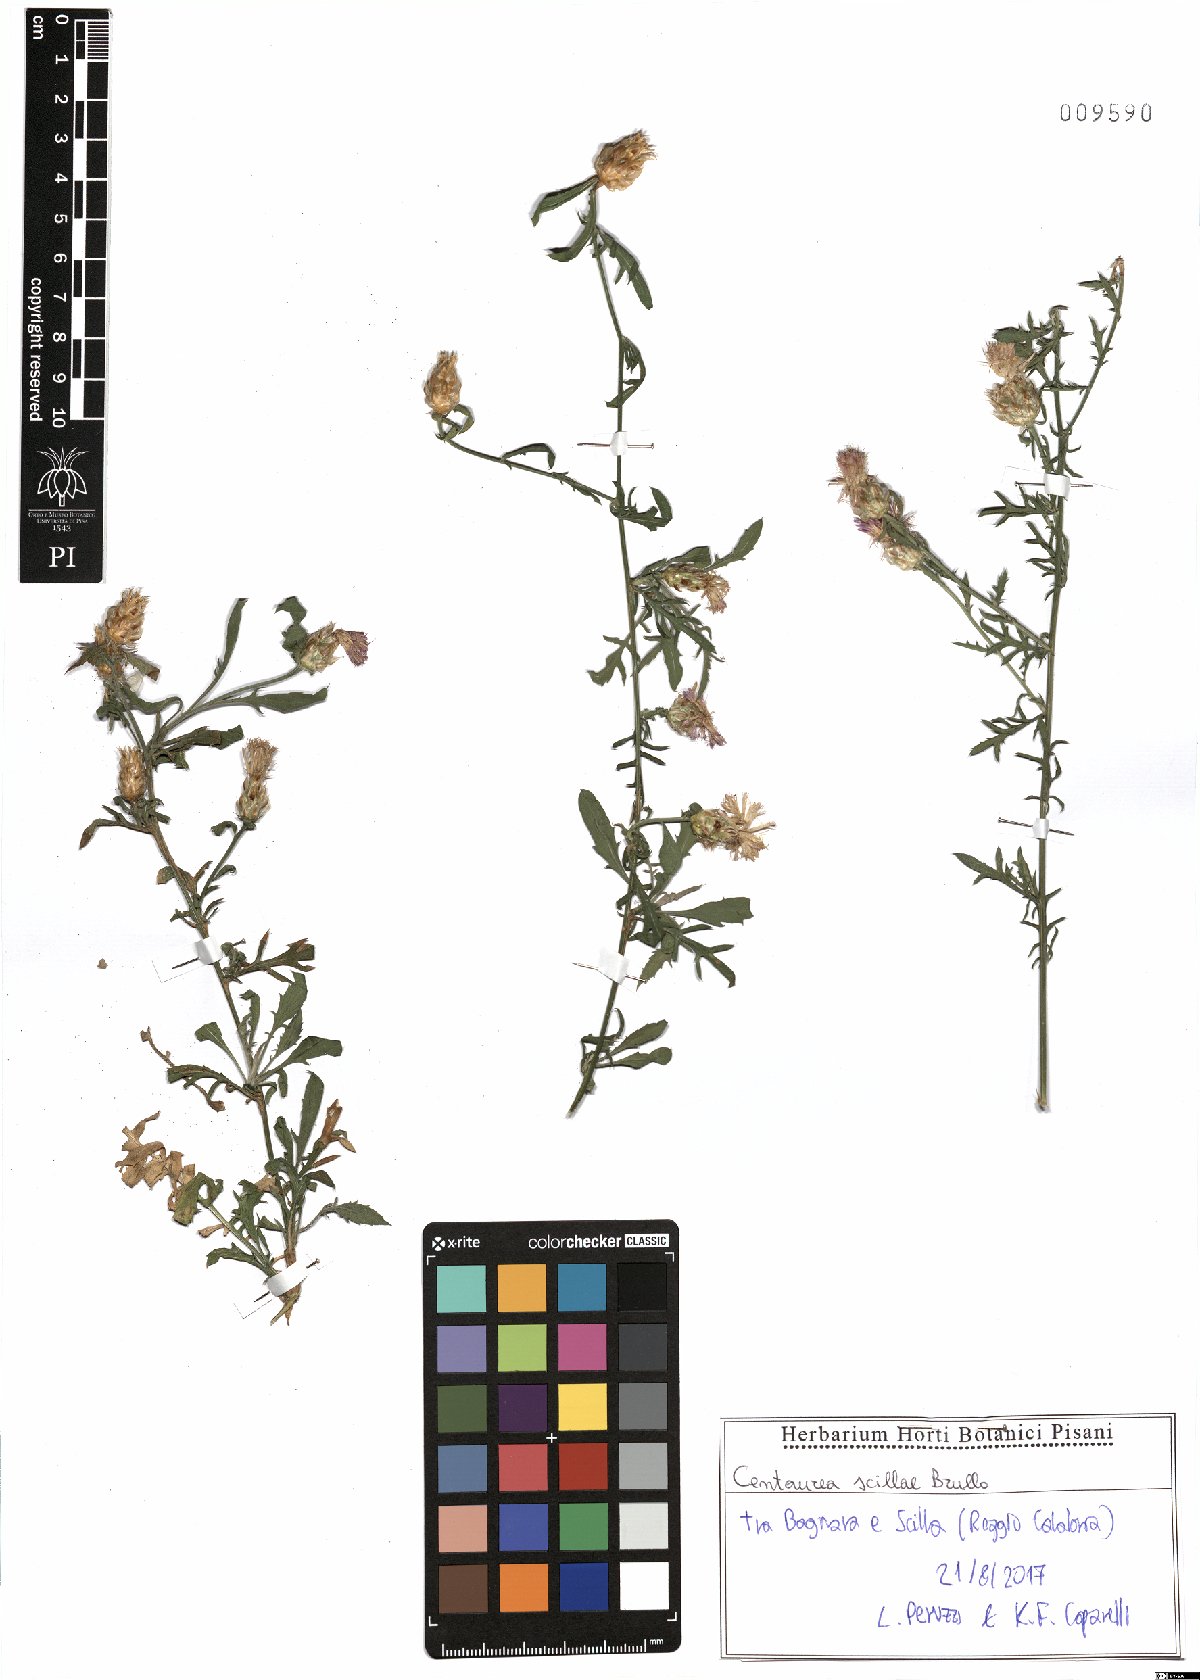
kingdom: Plantae
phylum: Tracheophyta
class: Magnoliopsida
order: Asterales
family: Asteraceae
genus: Centaurea
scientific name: Centaurea scillae
